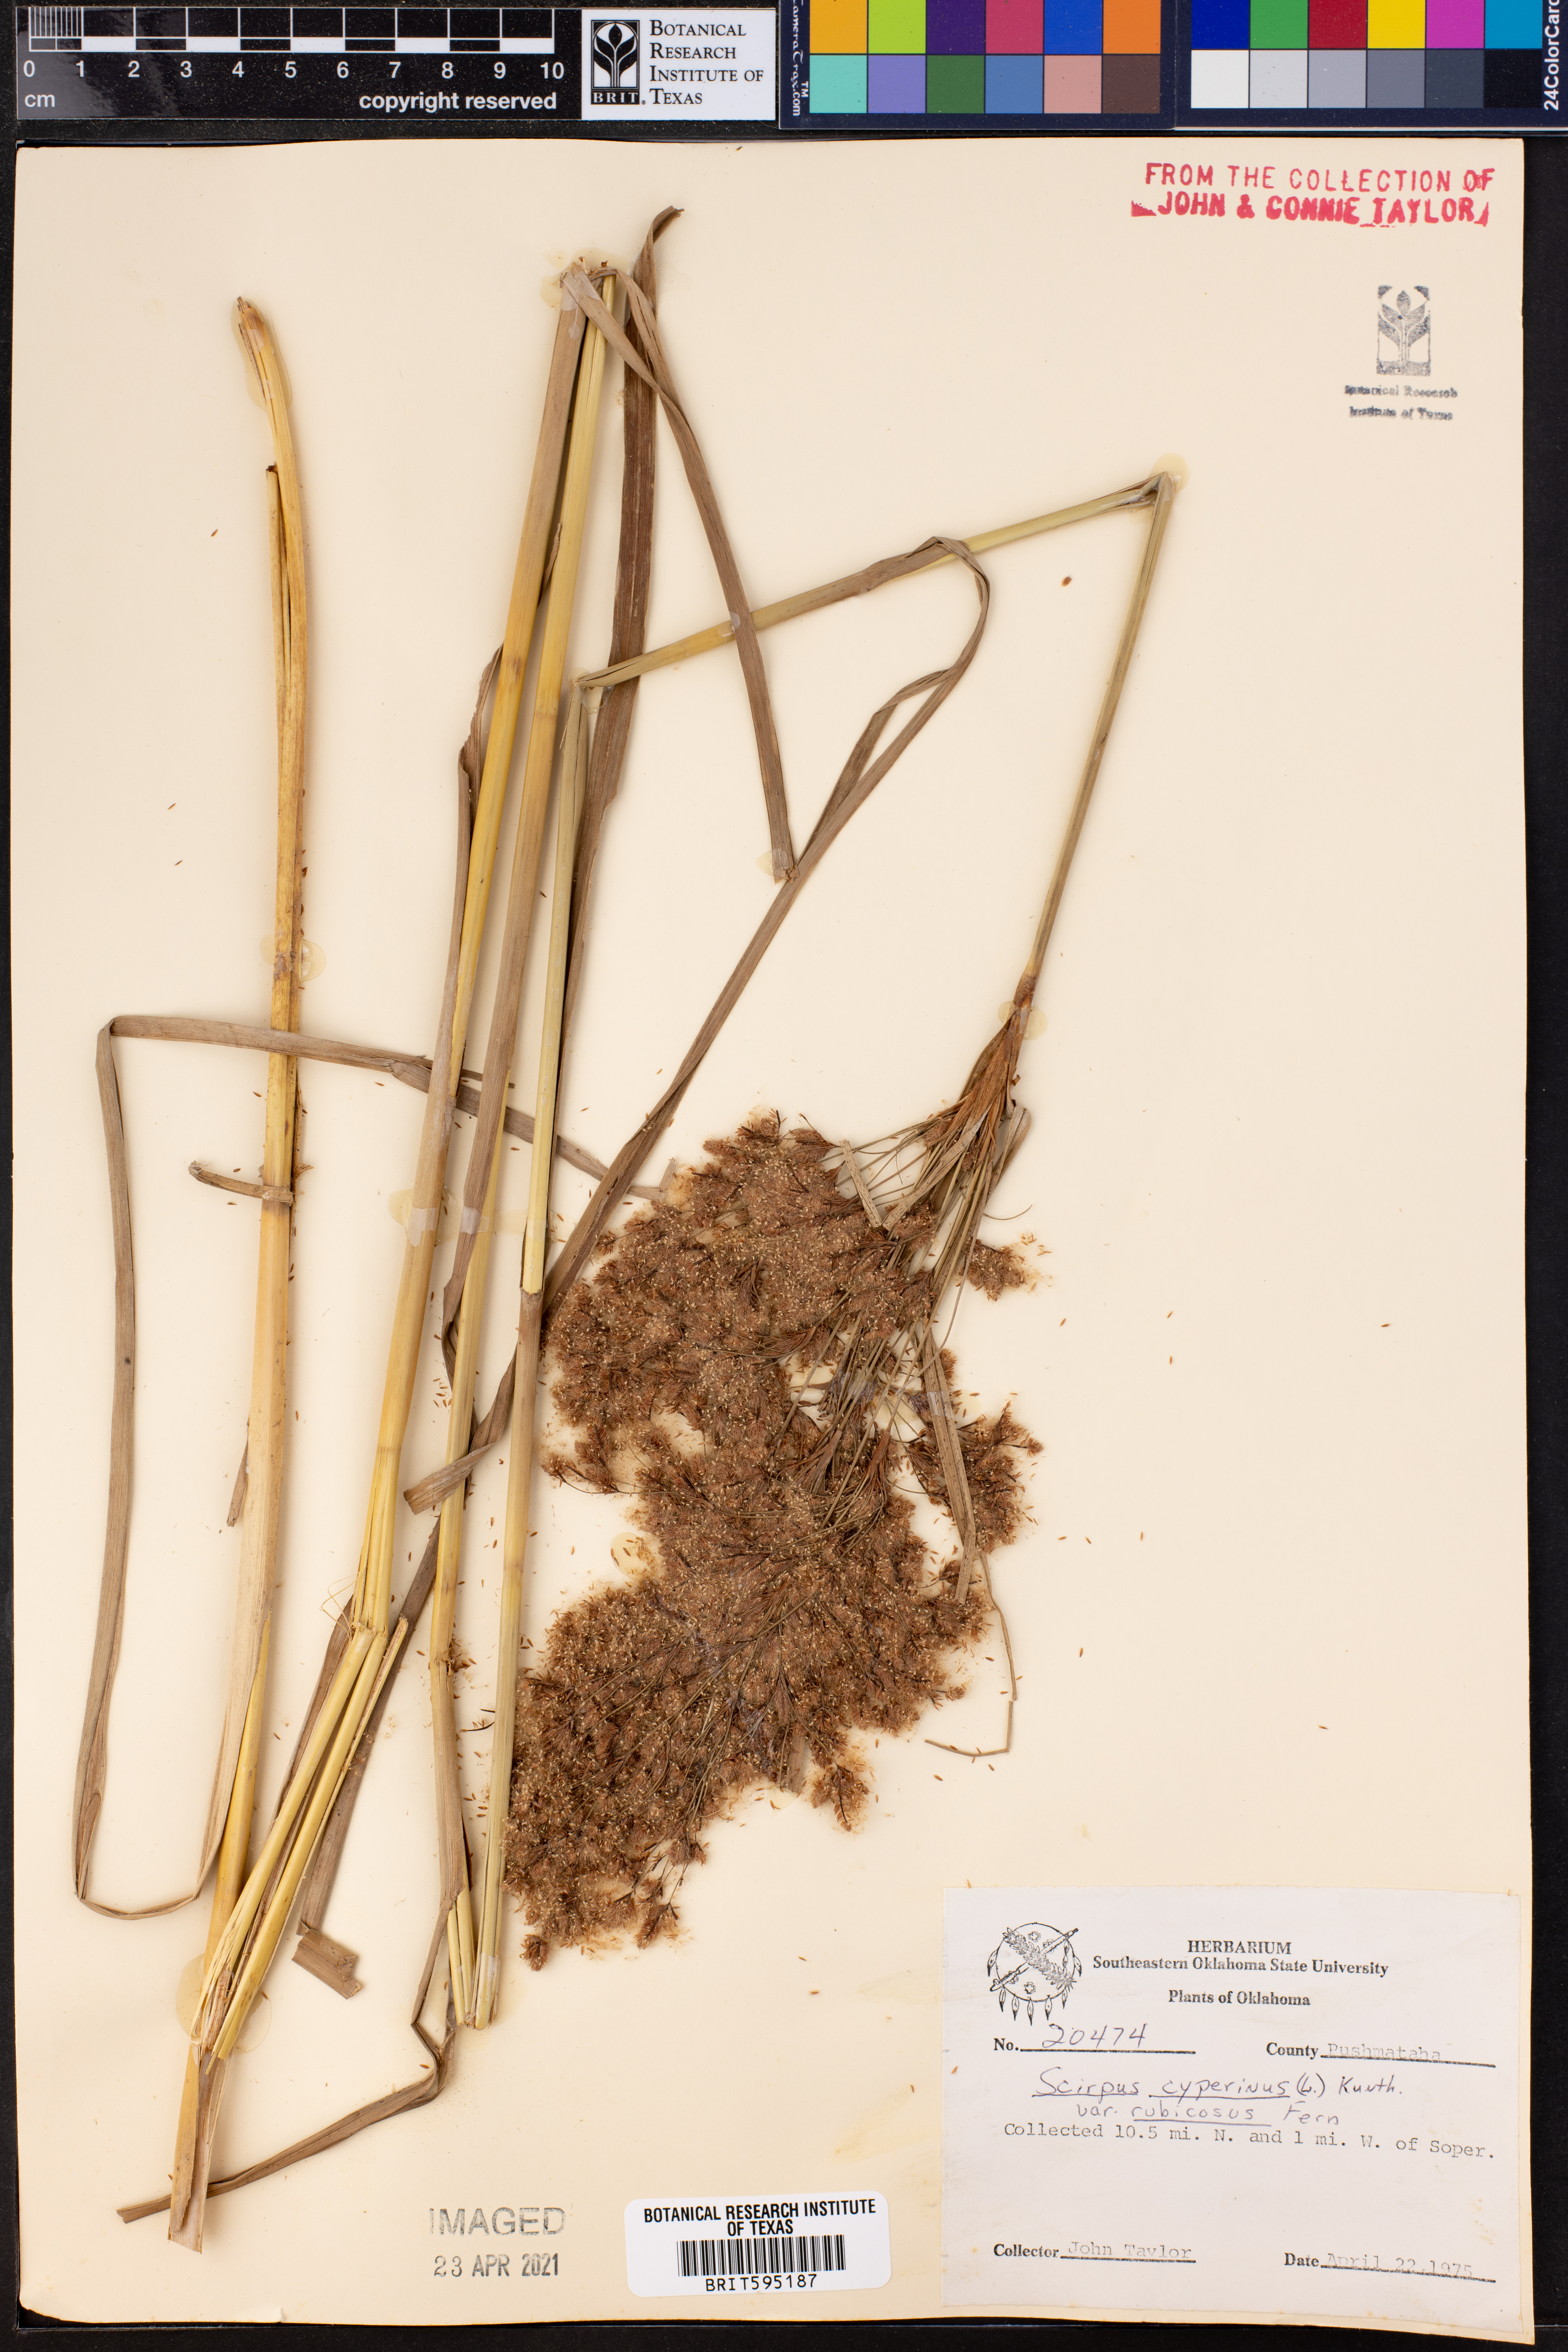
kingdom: Plantae
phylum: Tracheophyta
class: Liliopsida
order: Poales
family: Cyperaceae
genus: Scirpus
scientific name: Scirpus cyperinus
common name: Black-sheathed bulrush
